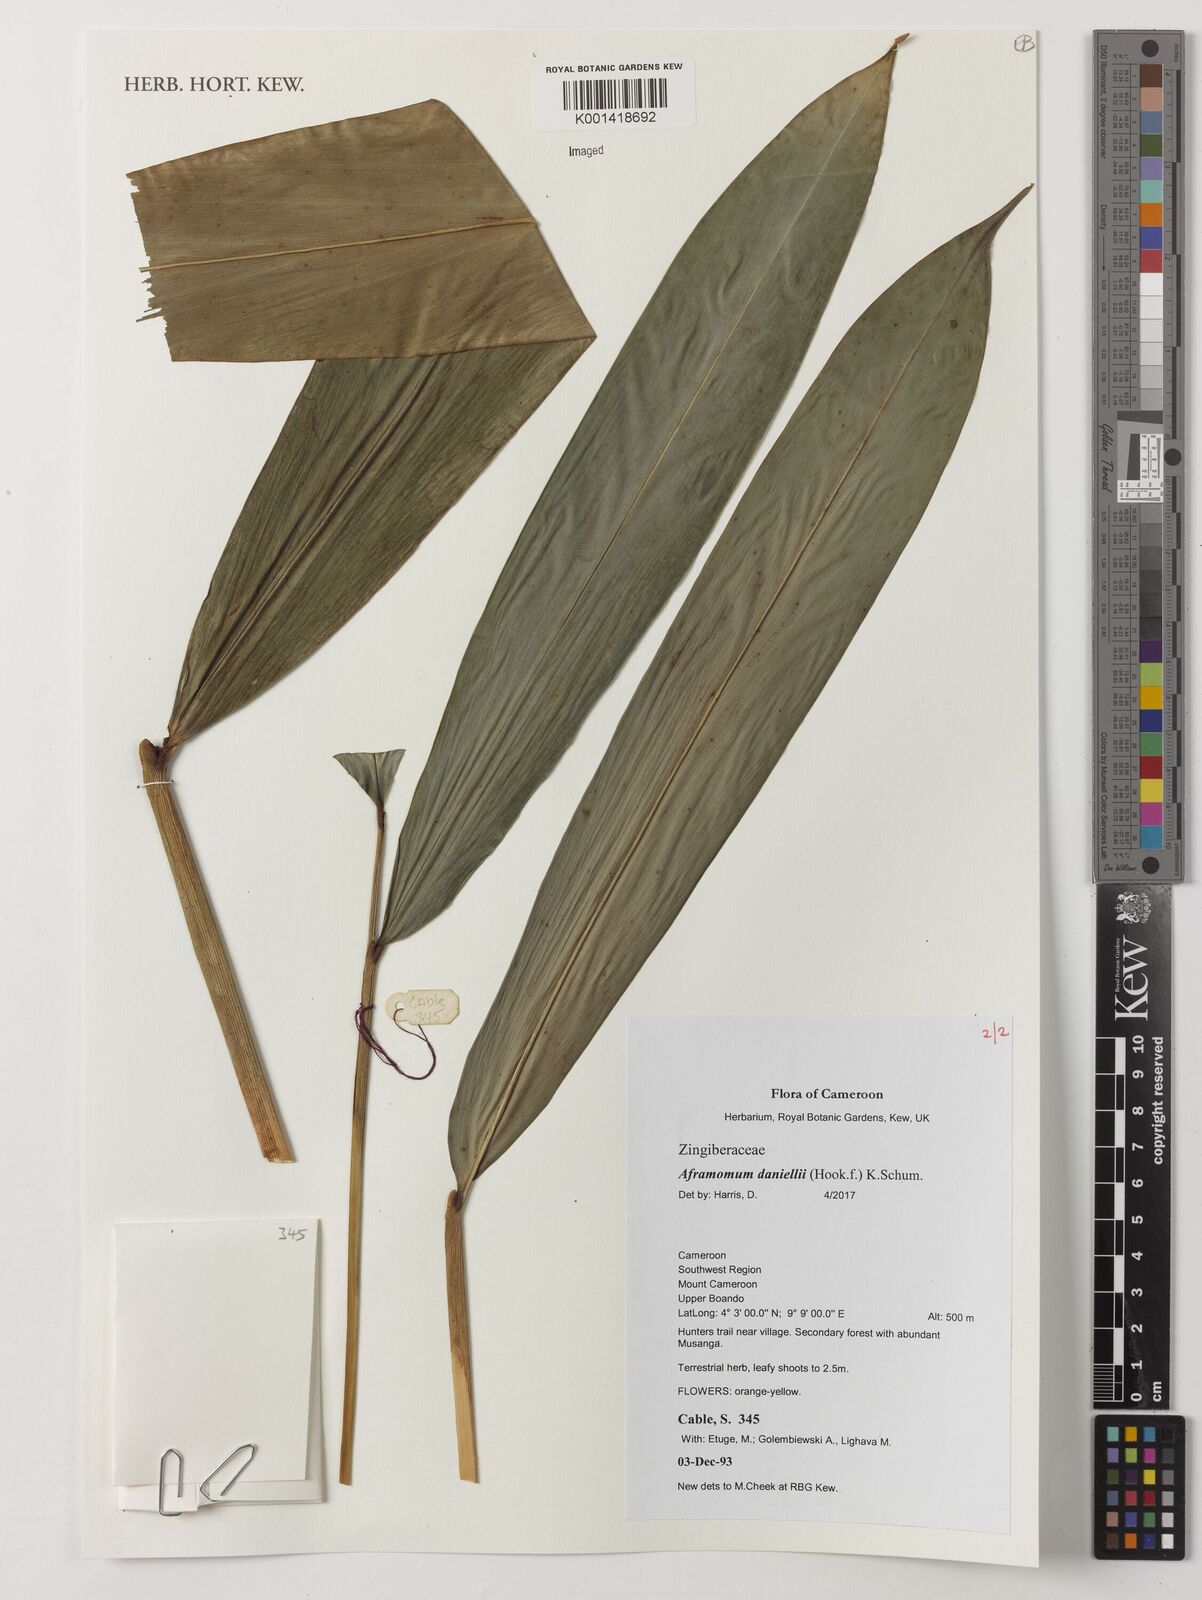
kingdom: Plantae
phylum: Tracheophyta
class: Liliopsida
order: Zingiberales
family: Zingiberaceae
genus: Aframomum
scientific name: Aframomum daniellii
